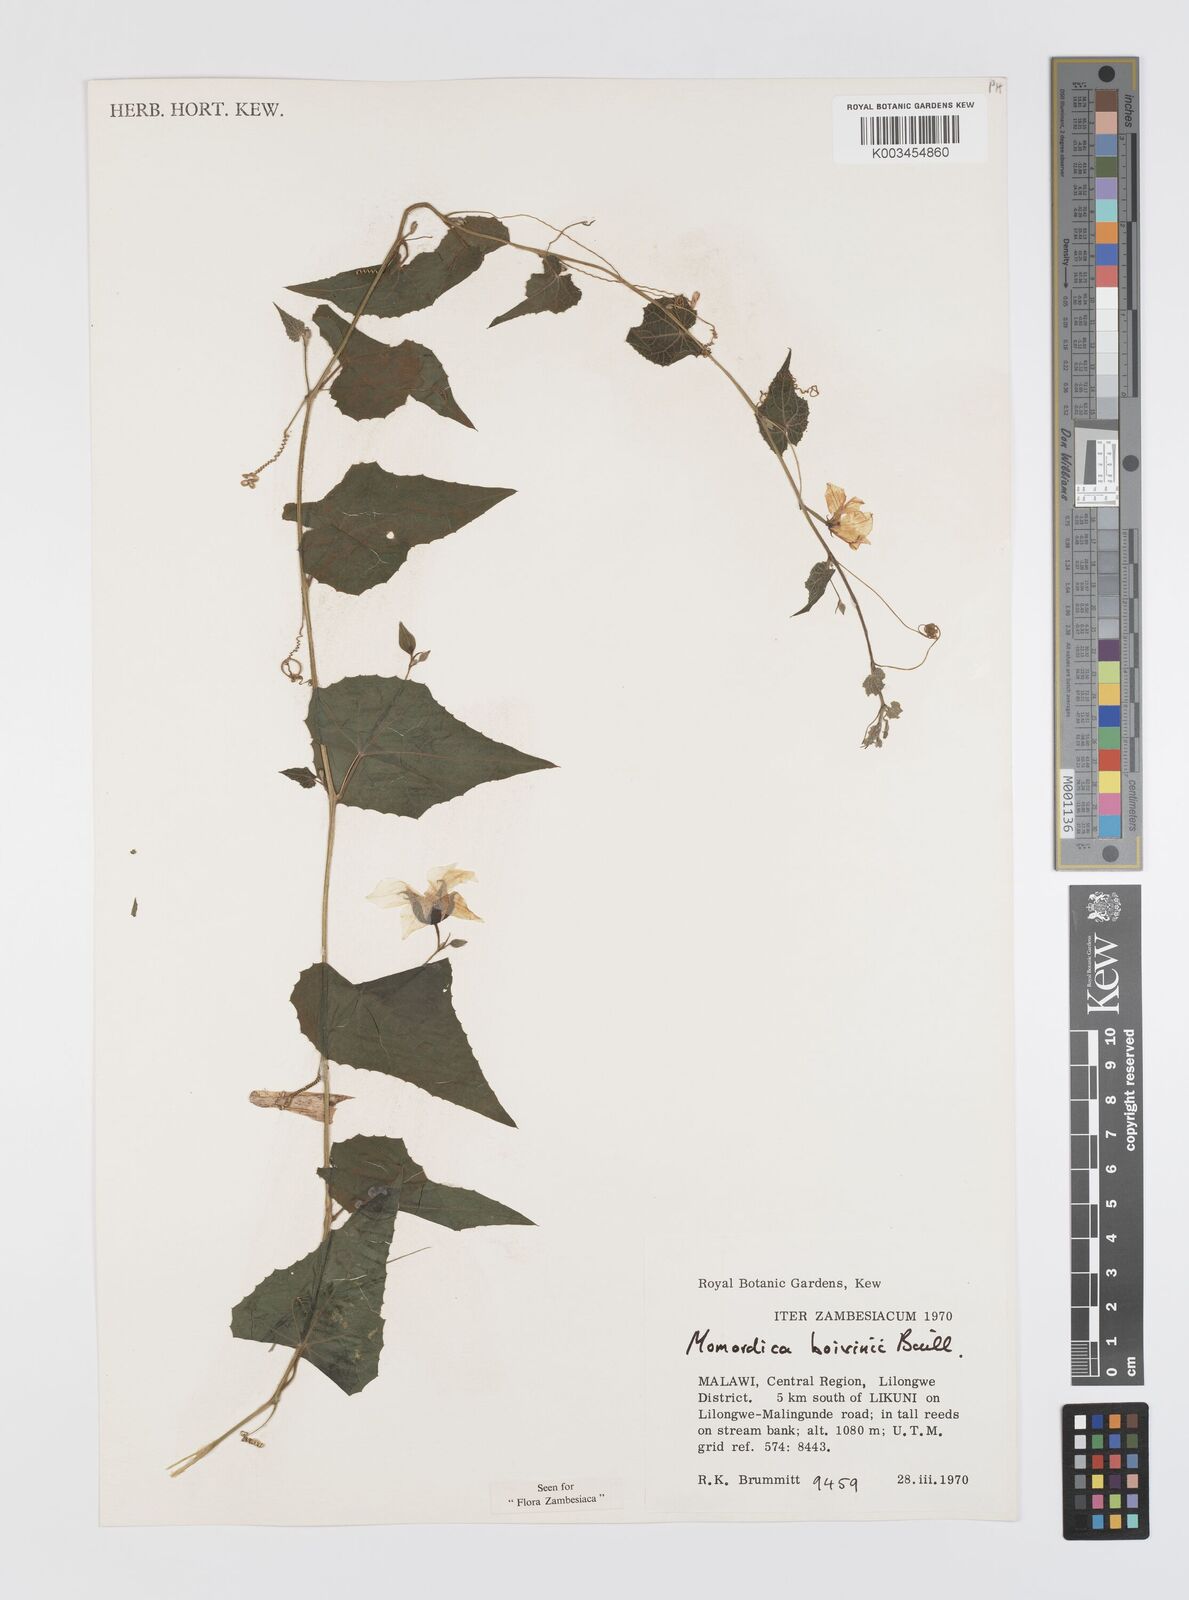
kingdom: Plantae
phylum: Tracheophyta
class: Magnoliopsida
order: Cucurbitales
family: Cucurbitaceae
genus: Momordica
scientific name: Momordica boivinii
